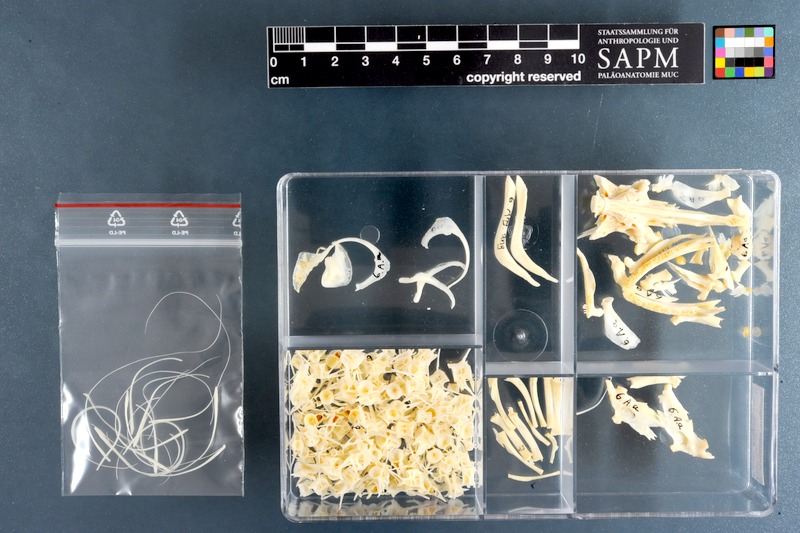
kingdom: Animalia
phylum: Chordata
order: Anguilliformes
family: Anguillidae
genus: Anguilla
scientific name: Anguilla anguilla
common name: European eel
